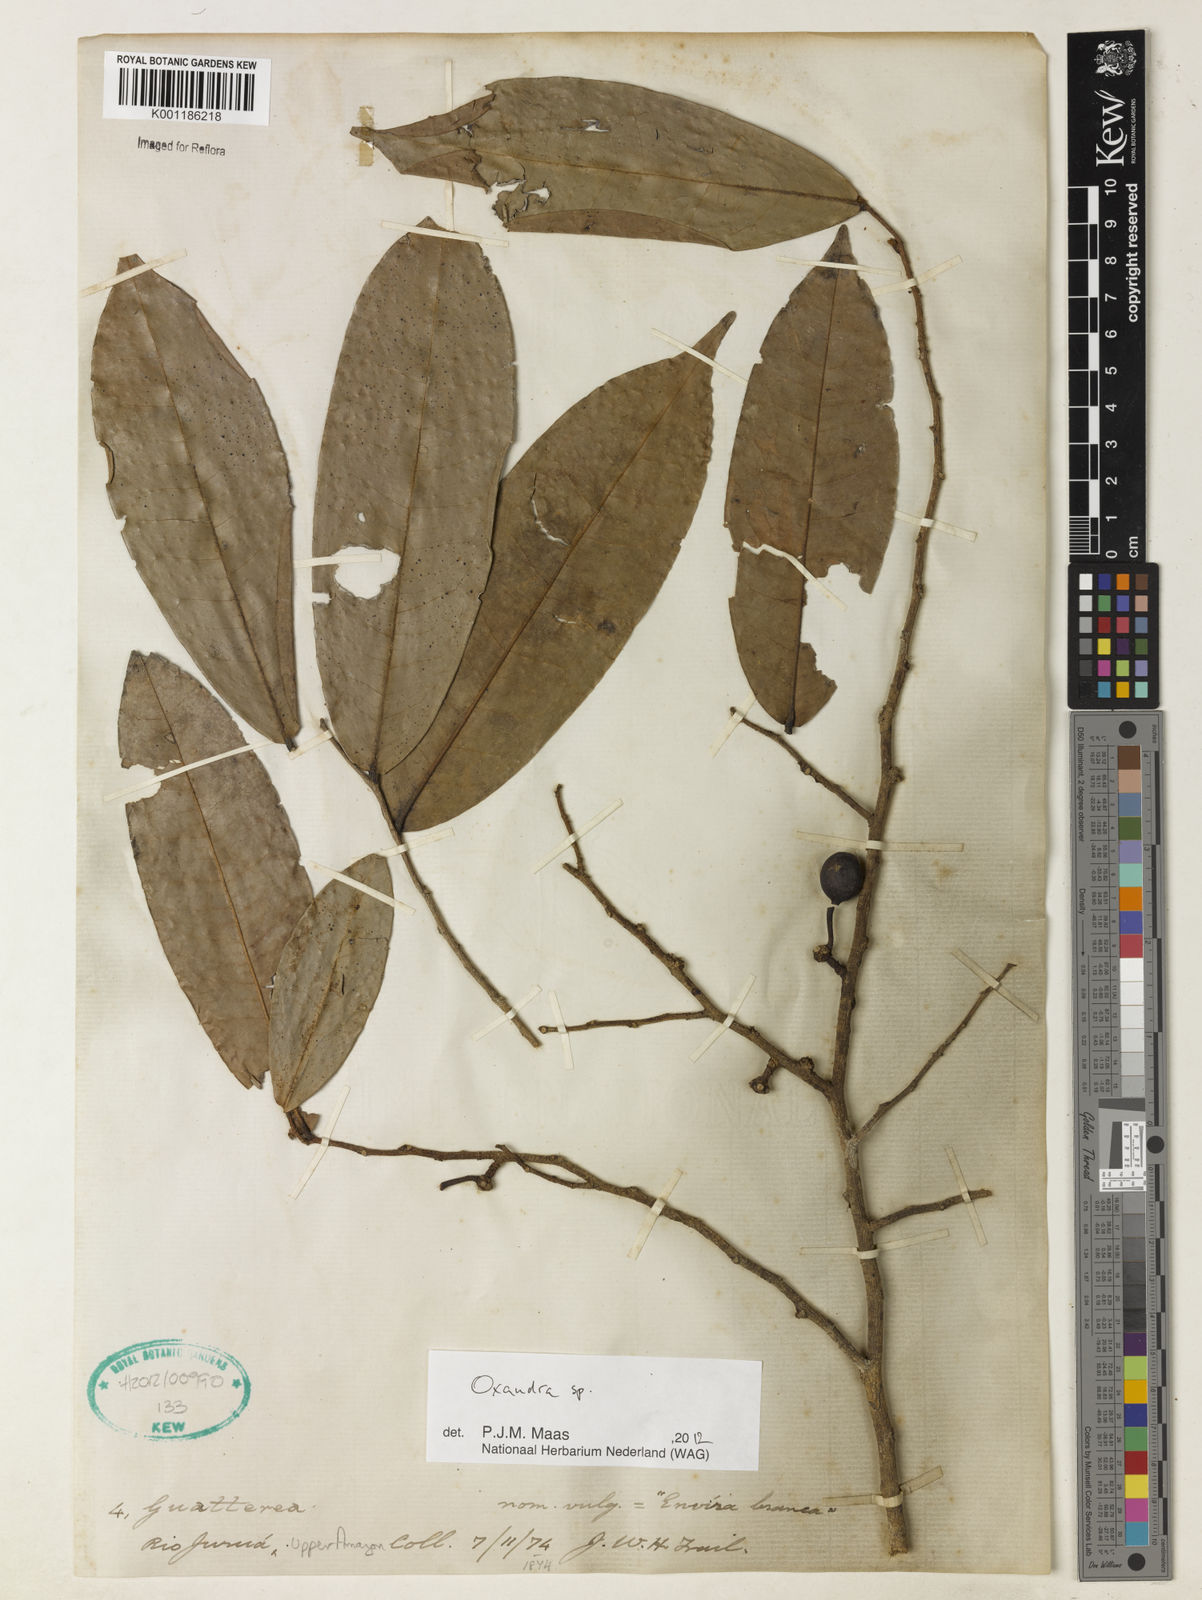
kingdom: Plantae
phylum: Tracheophyta
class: Magnoliopsida
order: Magnoliales
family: Annonaceae
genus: Oxandra
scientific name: Oxandra
